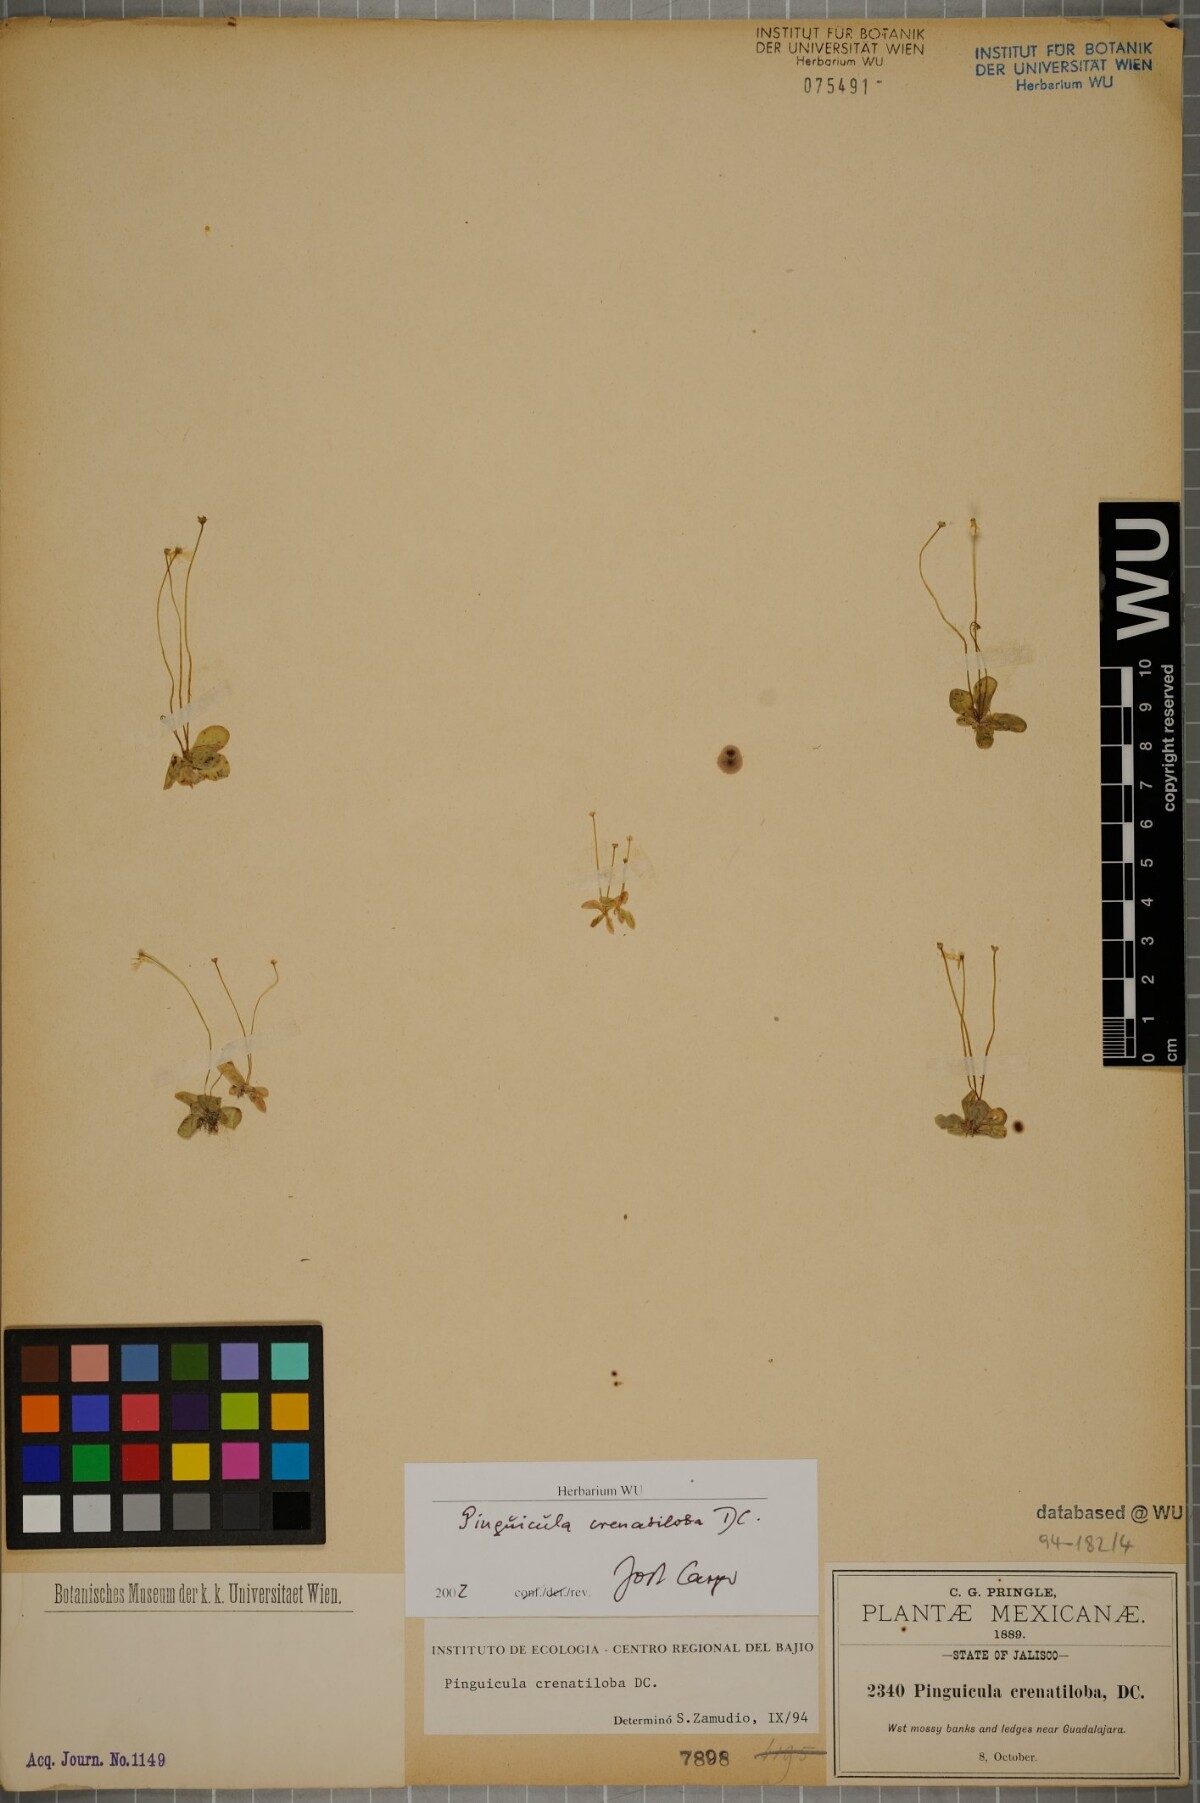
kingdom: Plantae
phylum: Tracheophyta
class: Magnoliopsida
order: Lamiales
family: Lentibulariaceae
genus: Pinguicula
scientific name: Pinguicula crenatiloba
